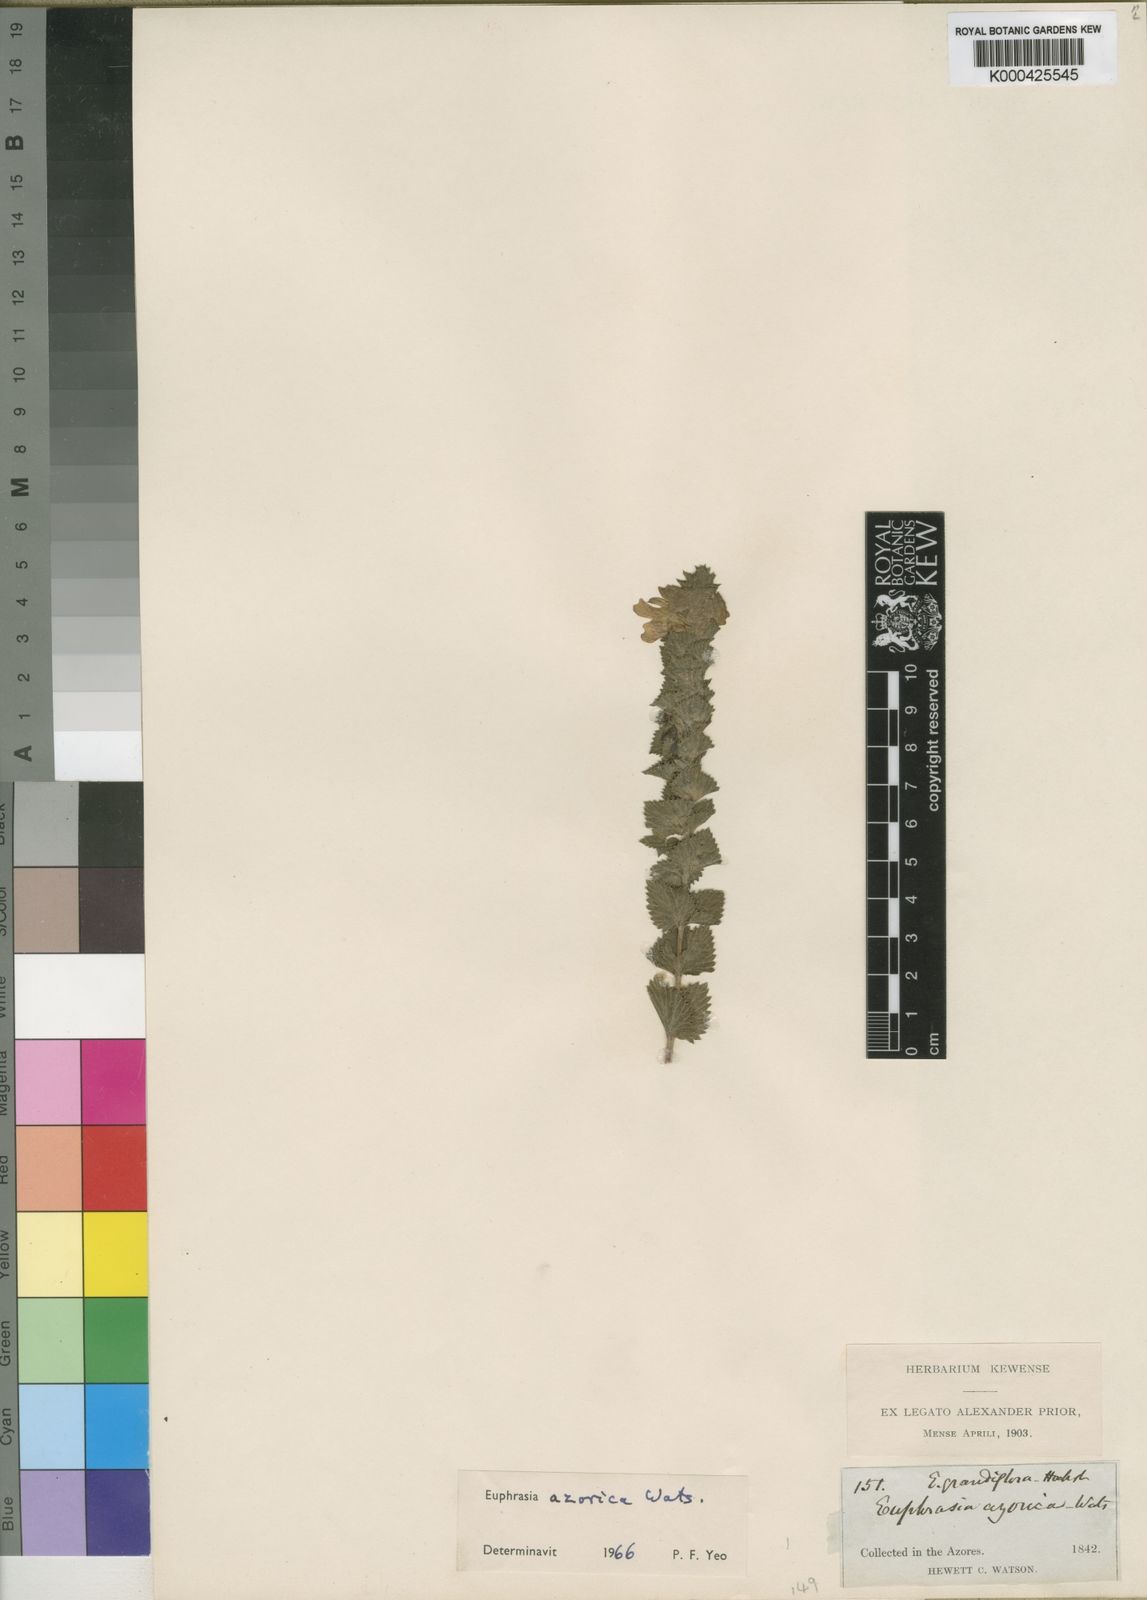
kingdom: Plantae
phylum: Tracheophyta
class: Magnoliopsida
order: Lamiales
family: Orobanchaceae
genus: Euphrasia
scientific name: Euphrasia azorica
